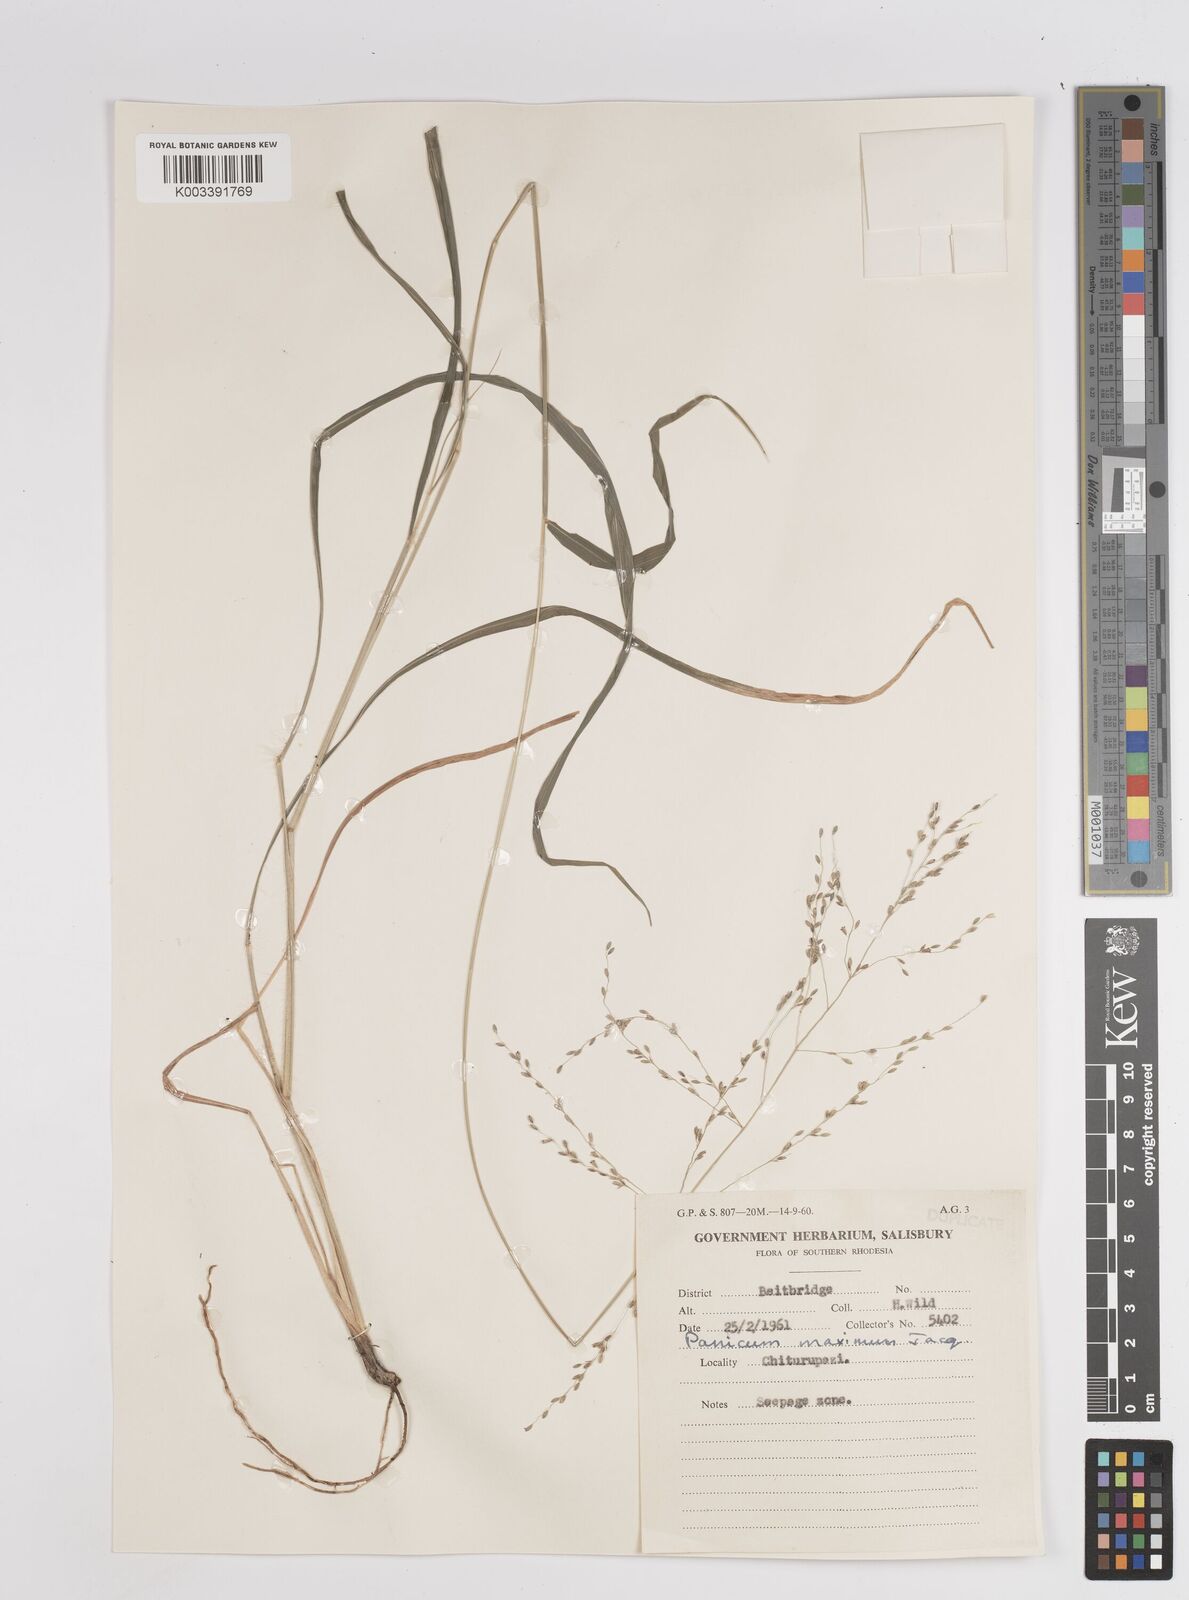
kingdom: Plantae
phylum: Tracheophyta
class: Liliopsida
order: Poales
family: Poaceae
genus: Megathyrsus
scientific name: Megathyrsus maximus
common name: Guineagrass
